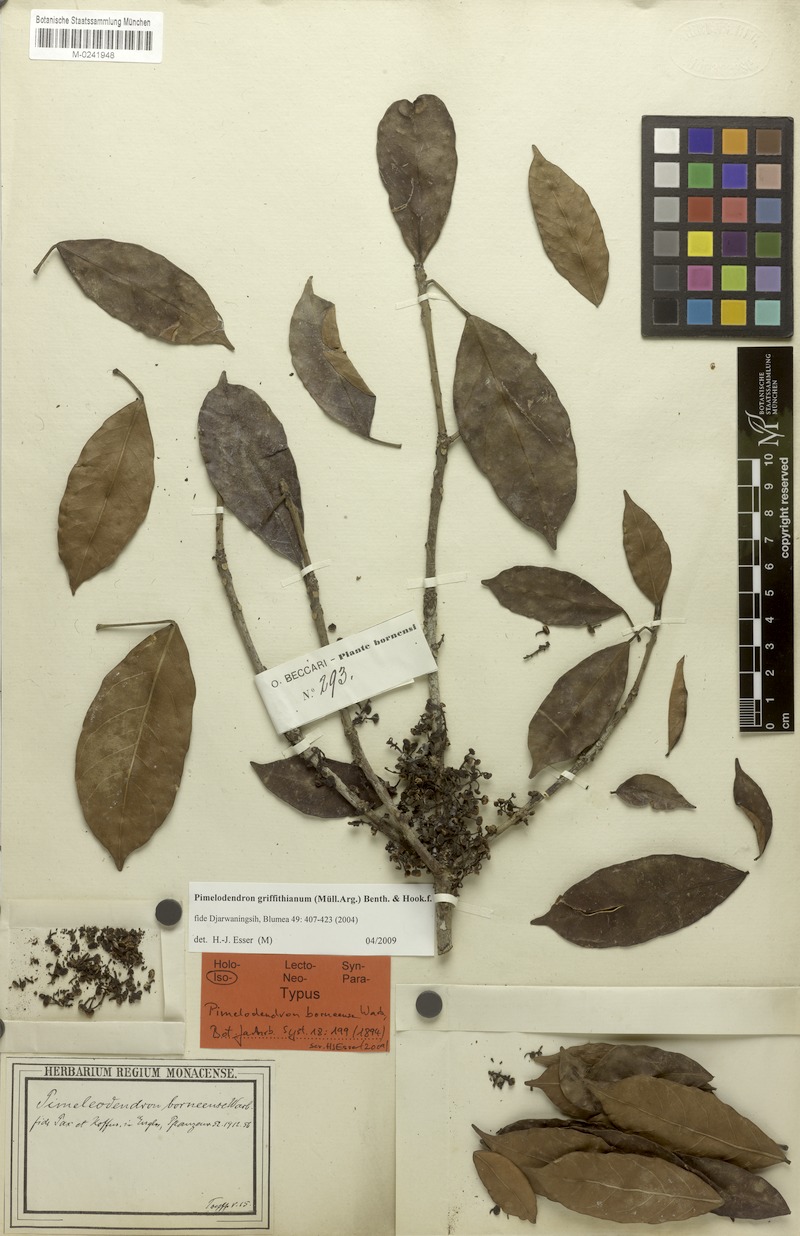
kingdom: Plantae
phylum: Tracheophyta
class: Magnoliopsida
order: Malpighiales
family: Euphorbiaceae
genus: Pimelodendron
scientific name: Pimelodendron griffithianum
